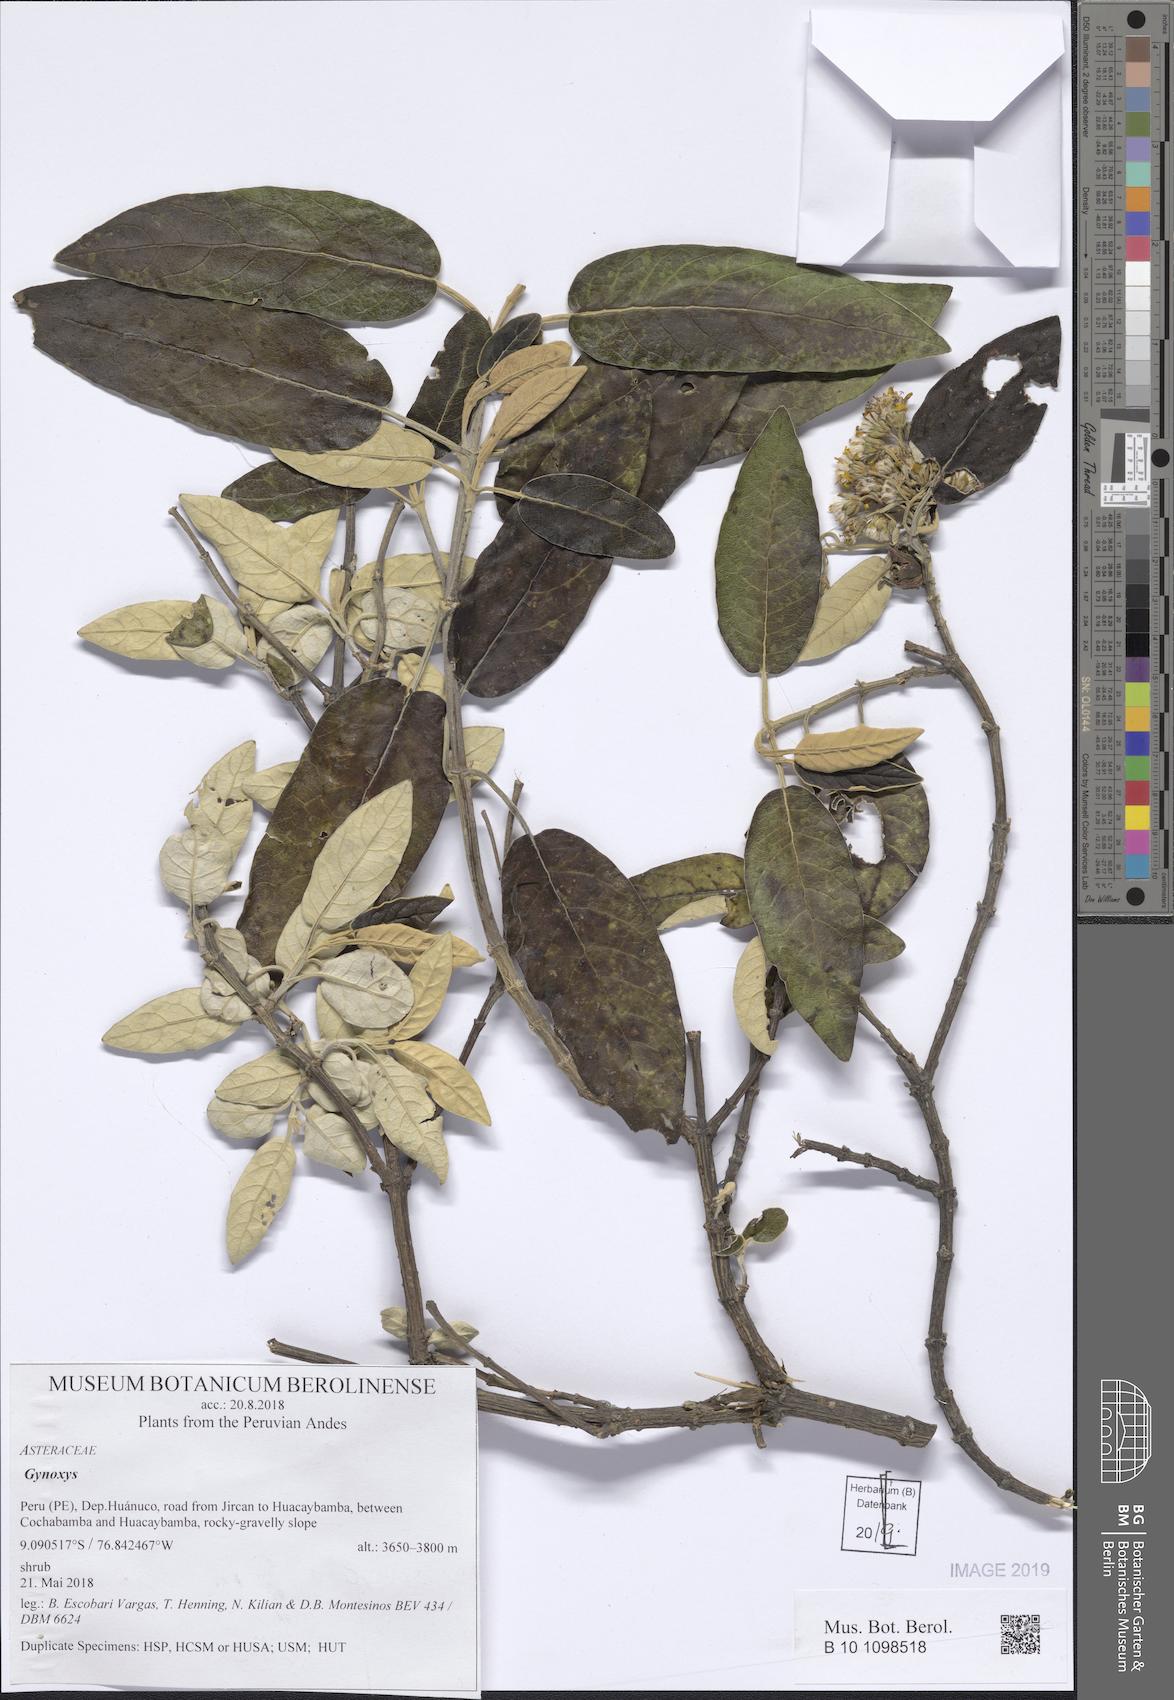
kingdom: Plantae
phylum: Tracheophyta
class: Magnoliopsida
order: Asterales
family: Asteraceae
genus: Gynoxys
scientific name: Gynoxys
